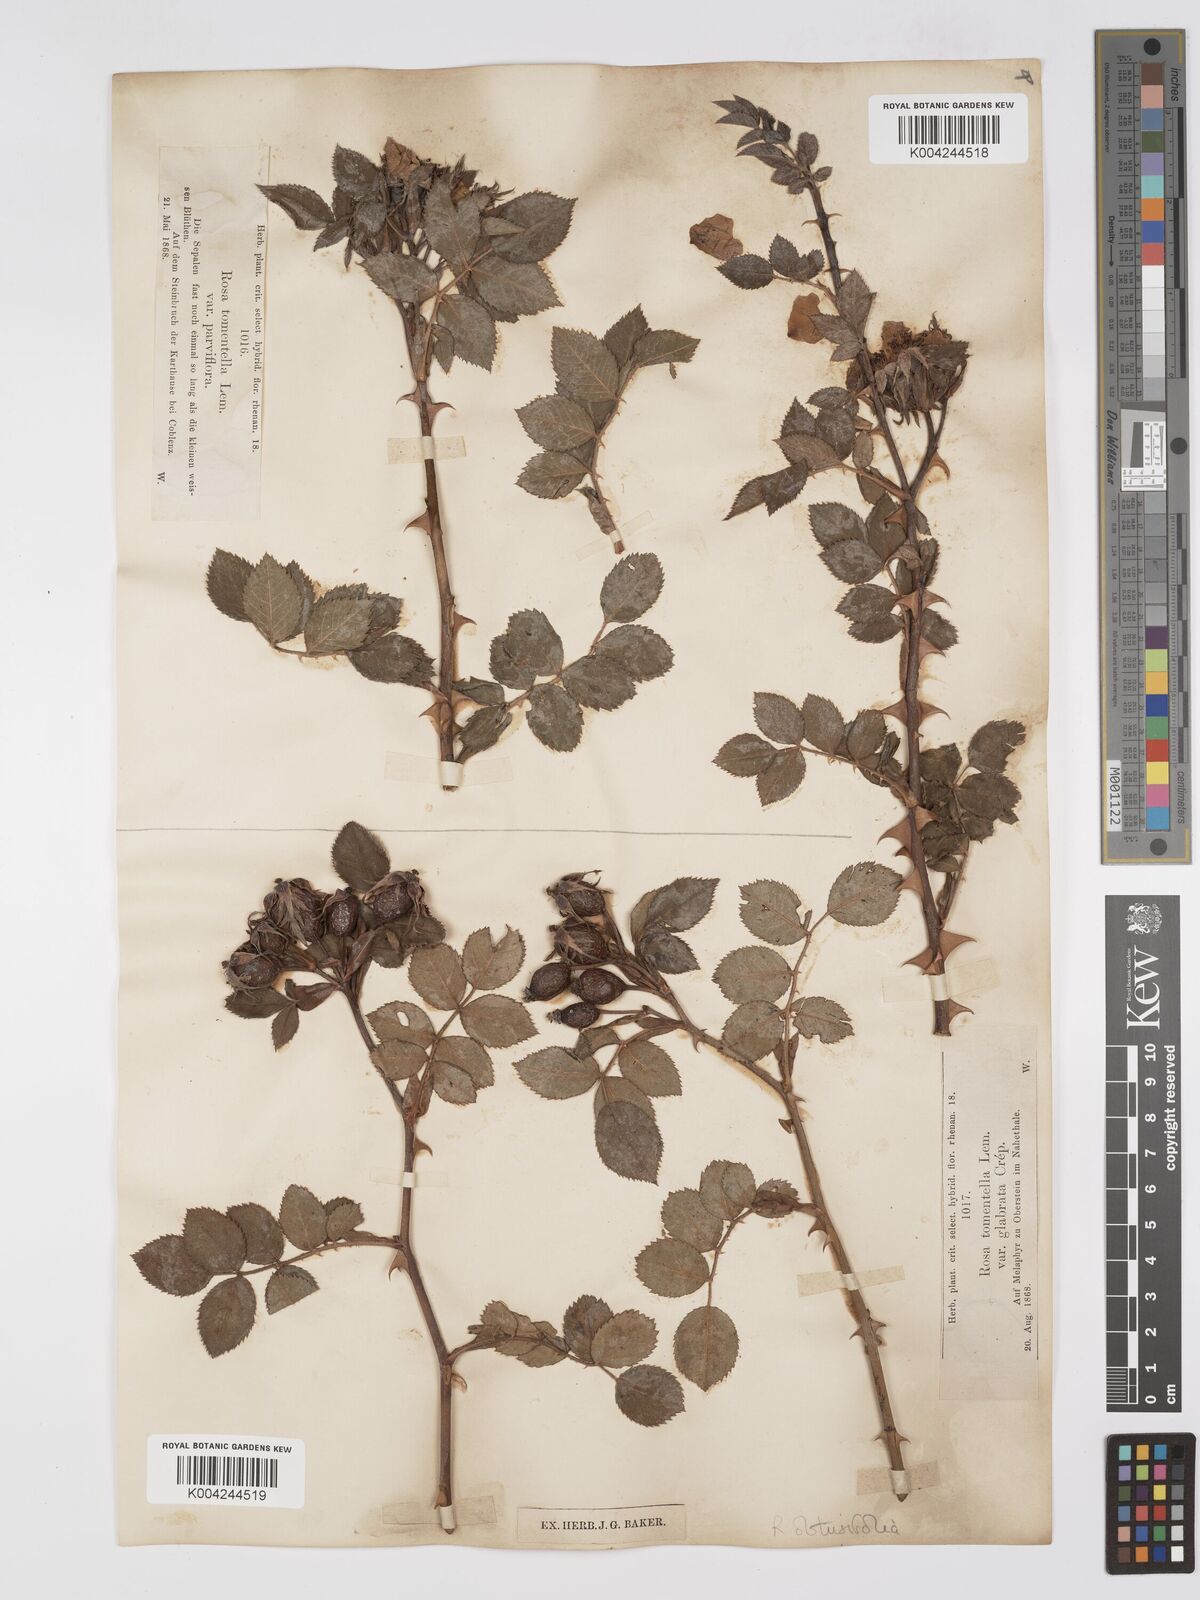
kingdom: Plantae
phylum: Tracheophyta
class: Magnoliopsida
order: Rosales
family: Rosaceae
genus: Rosa
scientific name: Rosa obtusifolia
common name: Round-leaved dog-rose
